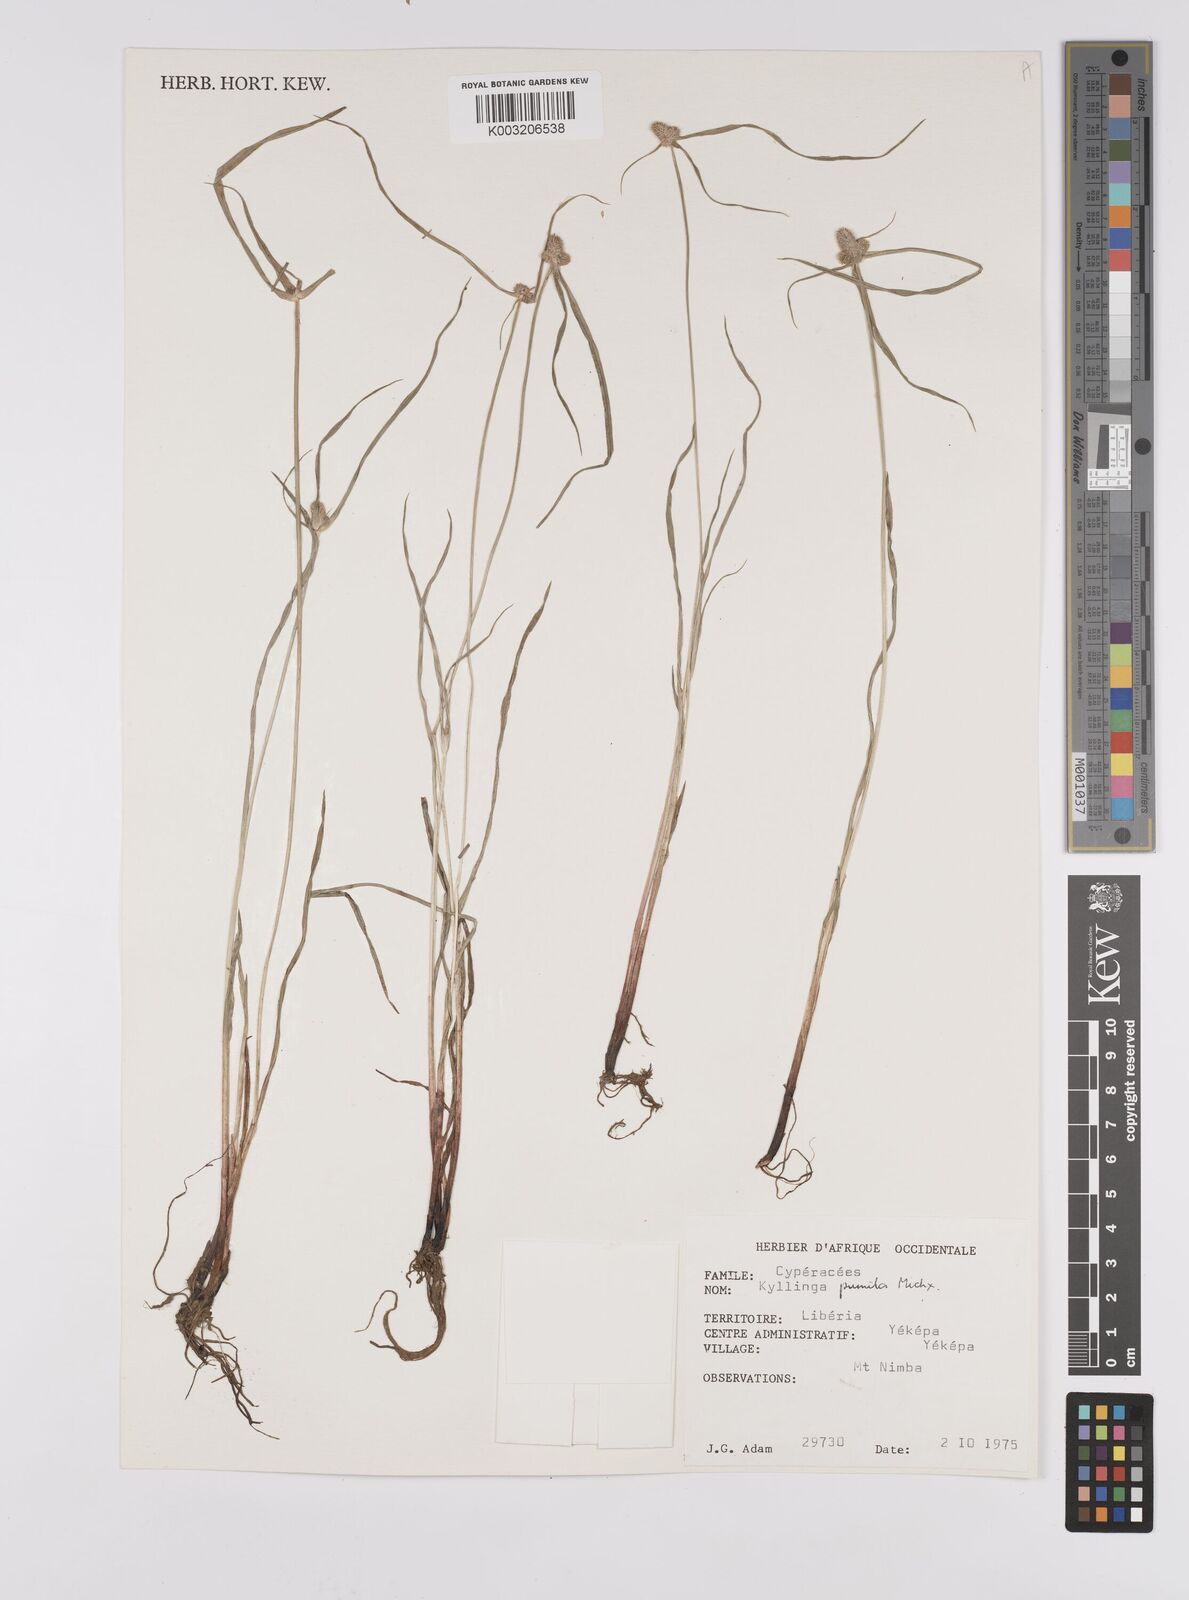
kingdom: Plantae
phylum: Tracheophyta
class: Liliopsida
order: Poales
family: Cyperaceae
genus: Cyperus
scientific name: Cyperus
